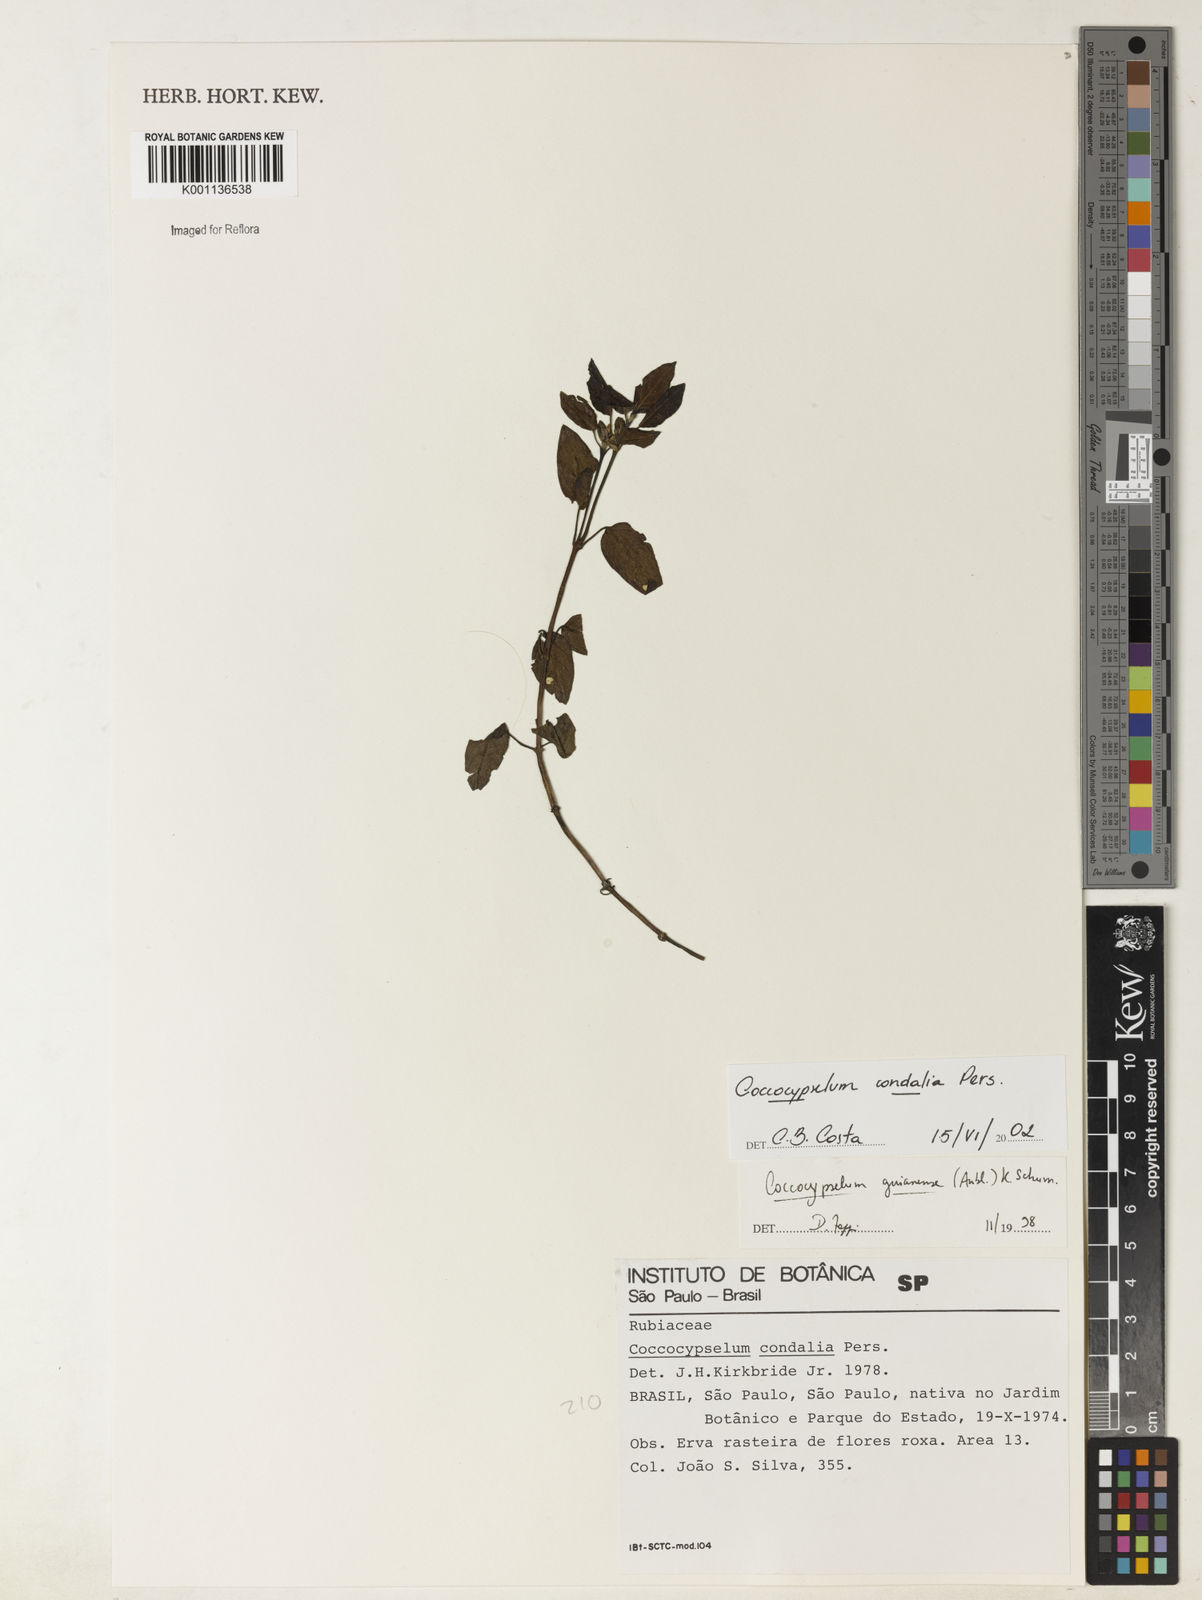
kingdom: Plantae
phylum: Tracheophyta
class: Magnoliopsida
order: Gentianales
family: Rubiaceae
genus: Coccocypselum
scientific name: Coccocypselum condalia
